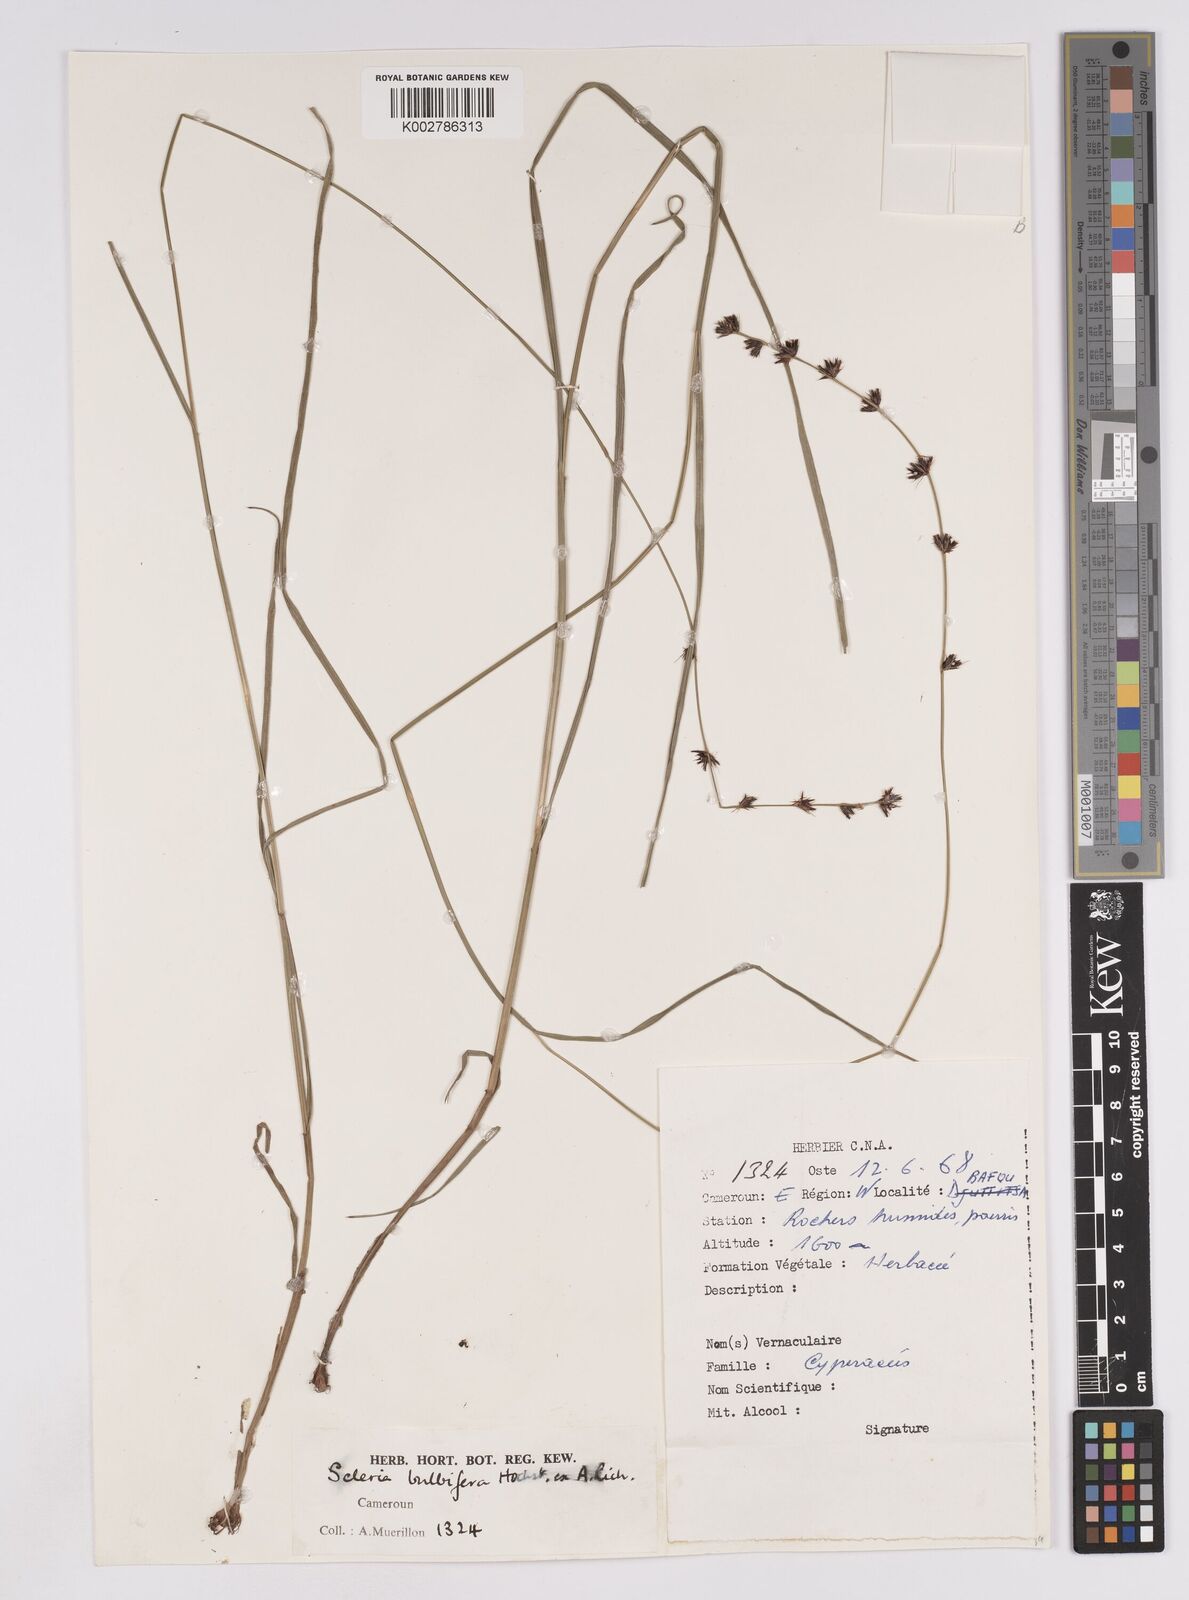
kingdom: Plantae
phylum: Tracheophyta
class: Liliopsida
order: Poales
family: Cyperaceae
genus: Scleria
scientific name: Scleria bulbifera
